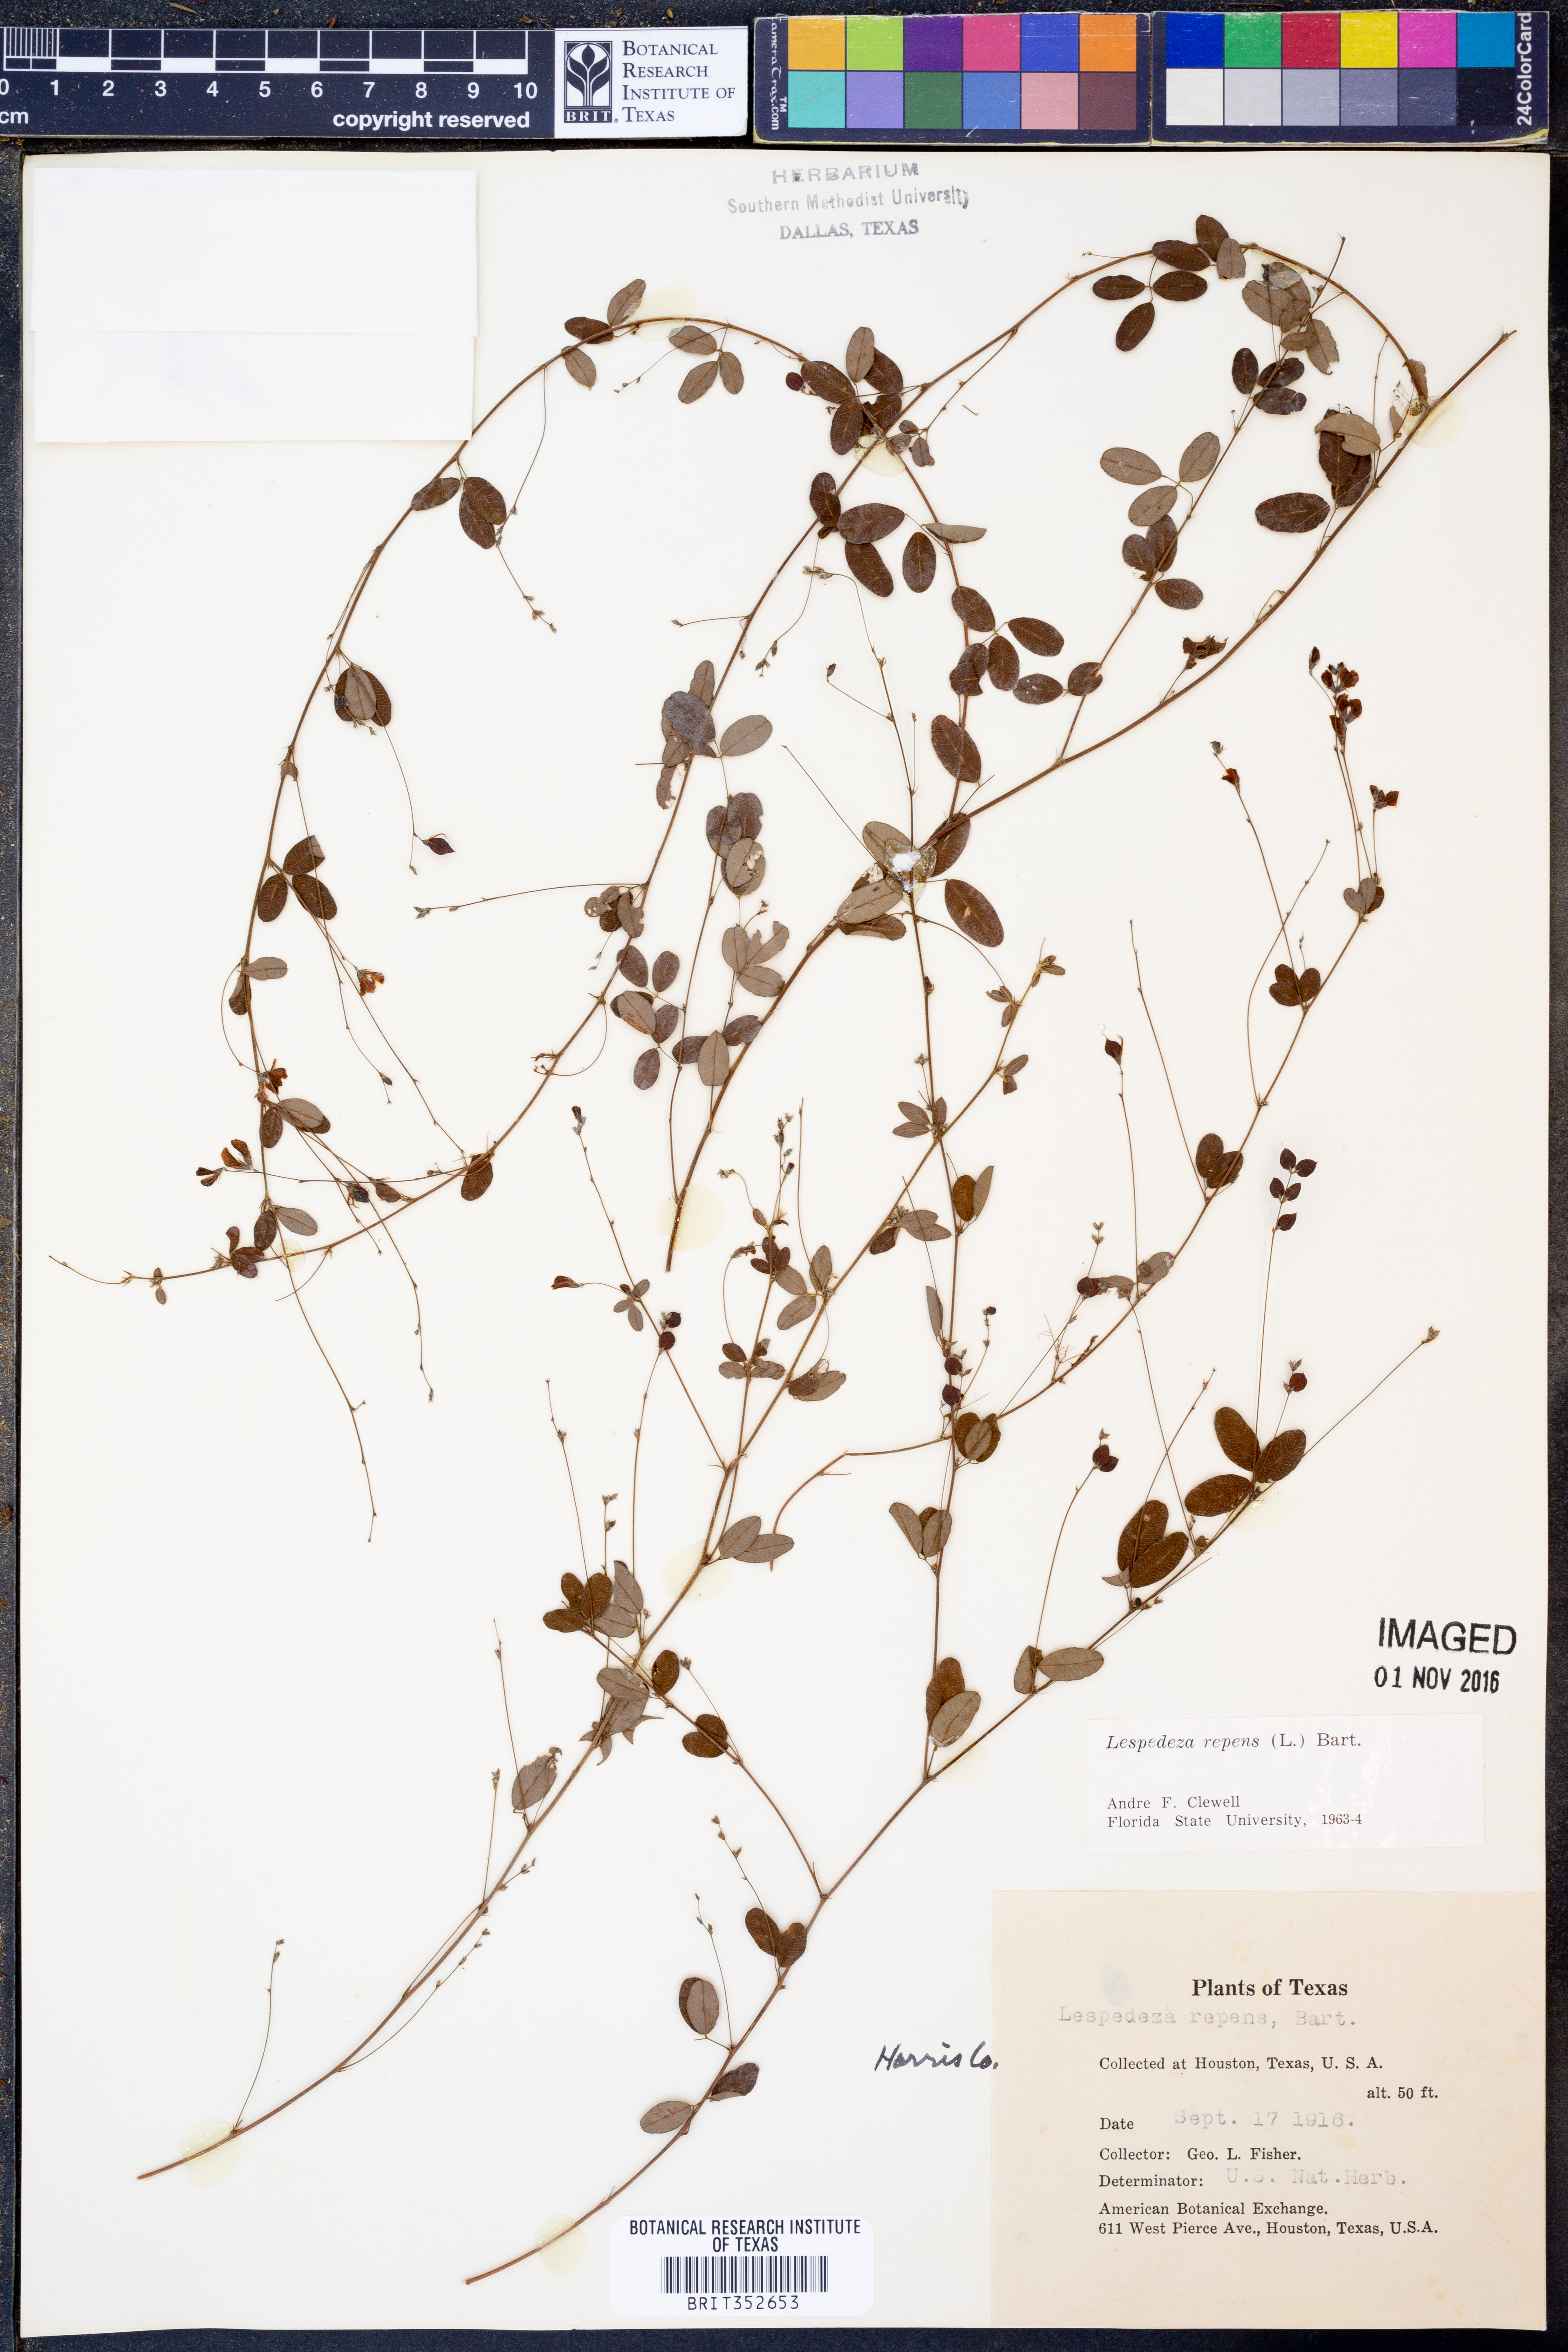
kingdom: Plantae
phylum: Tracheophyta
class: Magnoliopsida
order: Fabales
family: Fabaceae
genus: Lespedeza
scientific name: Lespedeza repens
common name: Creeping bush-clover
